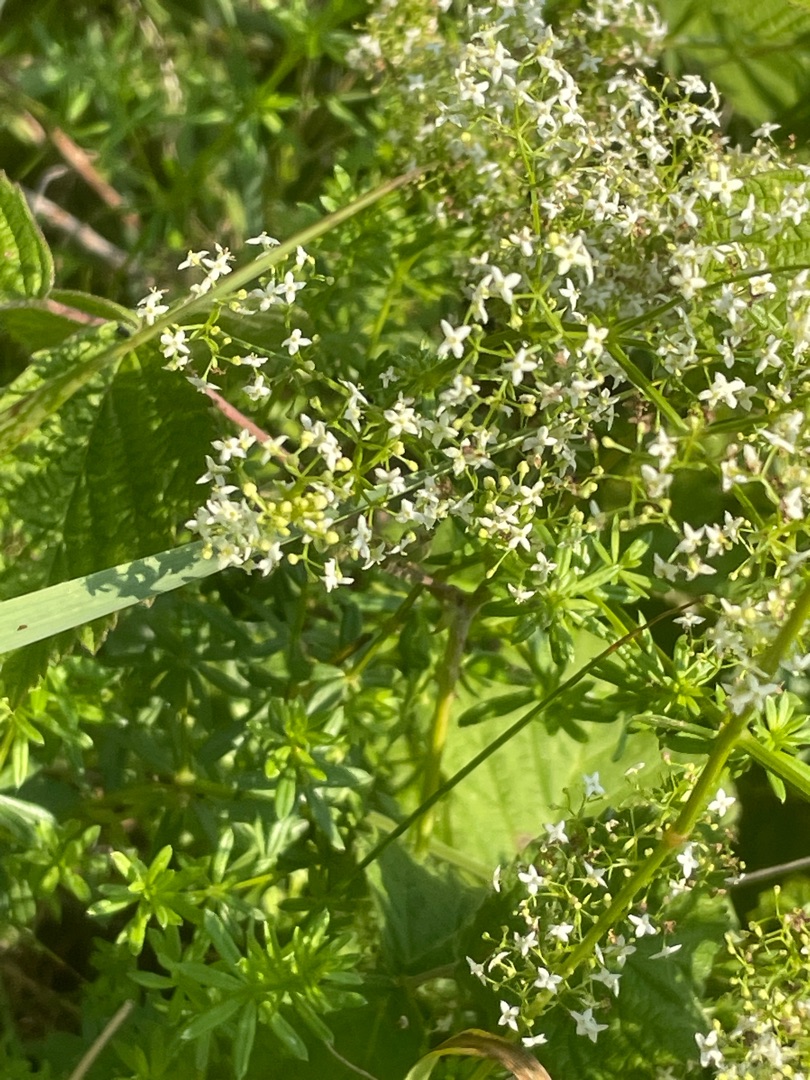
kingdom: Plantae
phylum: Tracheophyta
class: Magnoliopsida
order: Gentianales
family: Rubiaceae
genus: Galium
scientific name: Galium mollugo
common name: Hvid snerre
